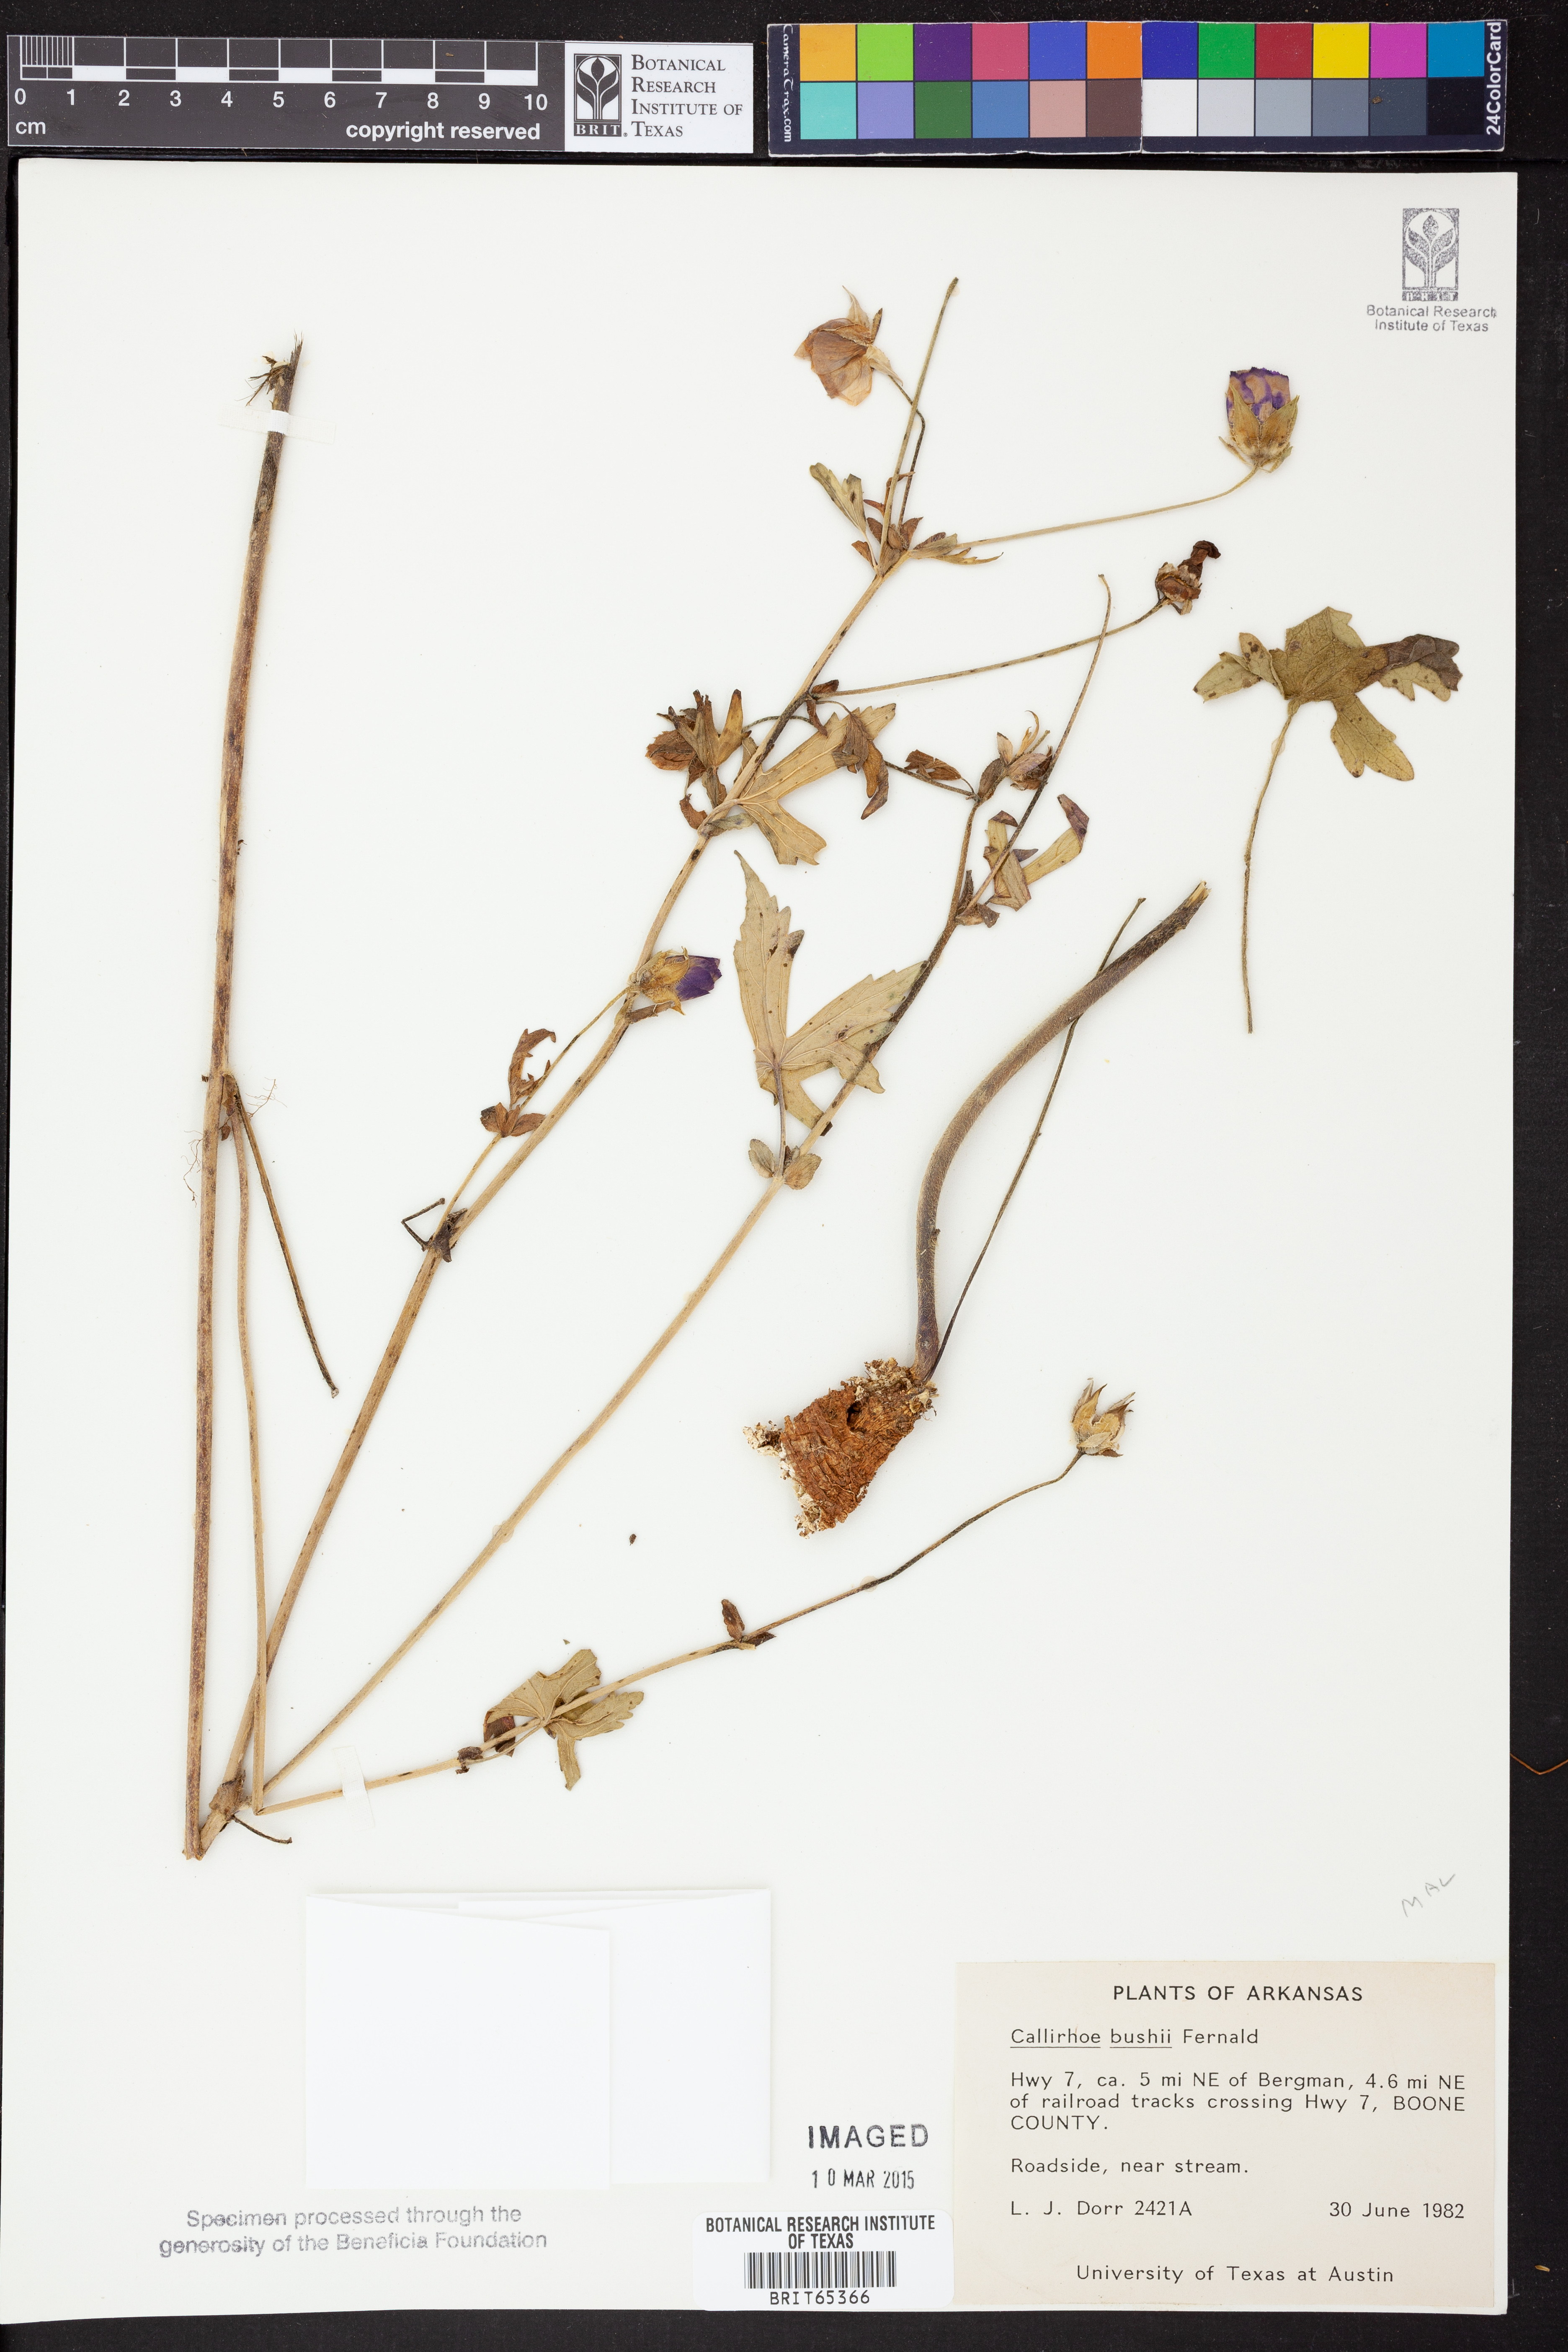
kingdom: Plantae
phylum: Tracheophyta
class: Magnoliopsida
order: Malvales
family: Malvaceae
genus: Callirhoe
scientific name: Callirhoe alcaeoides
